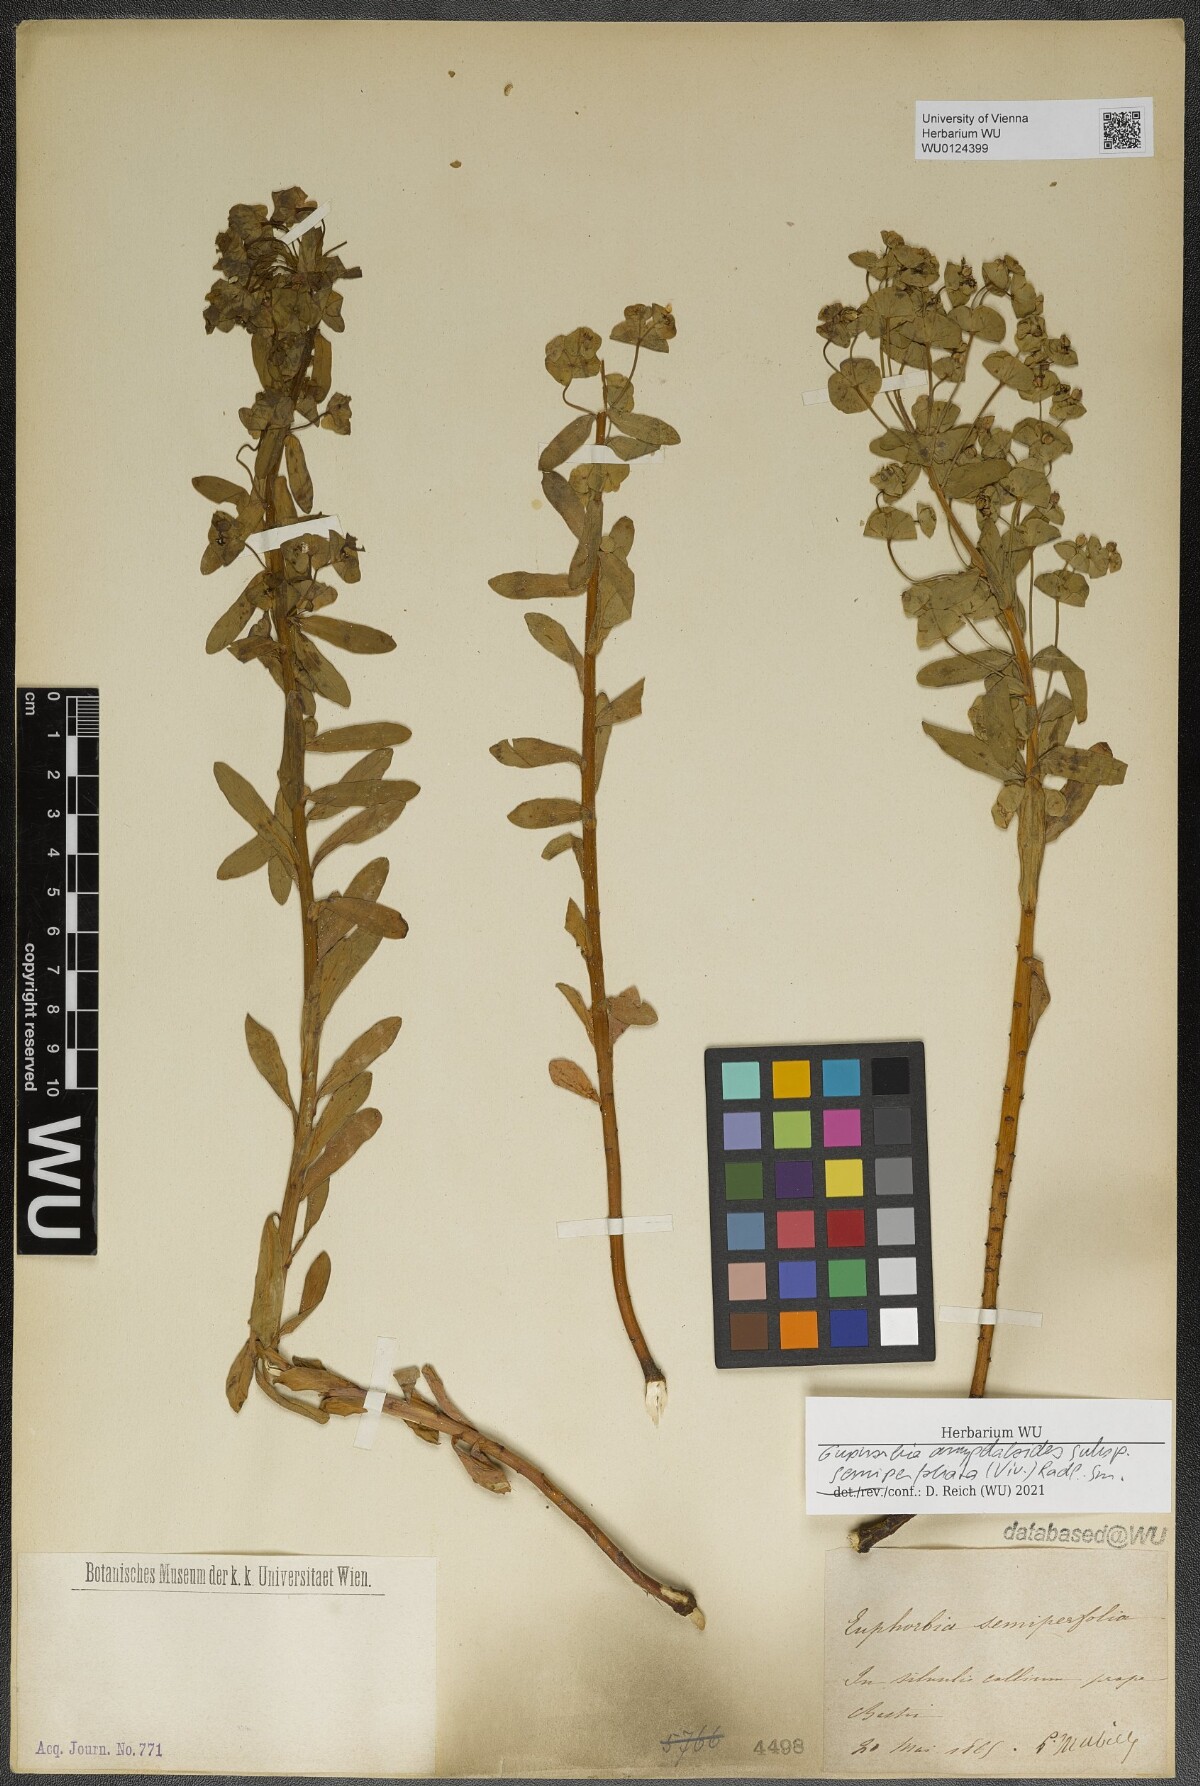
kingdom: Plantae
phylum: Tracheophyta
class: Magnoliopsida
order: Malpighiales
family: Euphorbiaceae
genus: Euphorbia
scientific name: Euphorbia semiperfoliata
